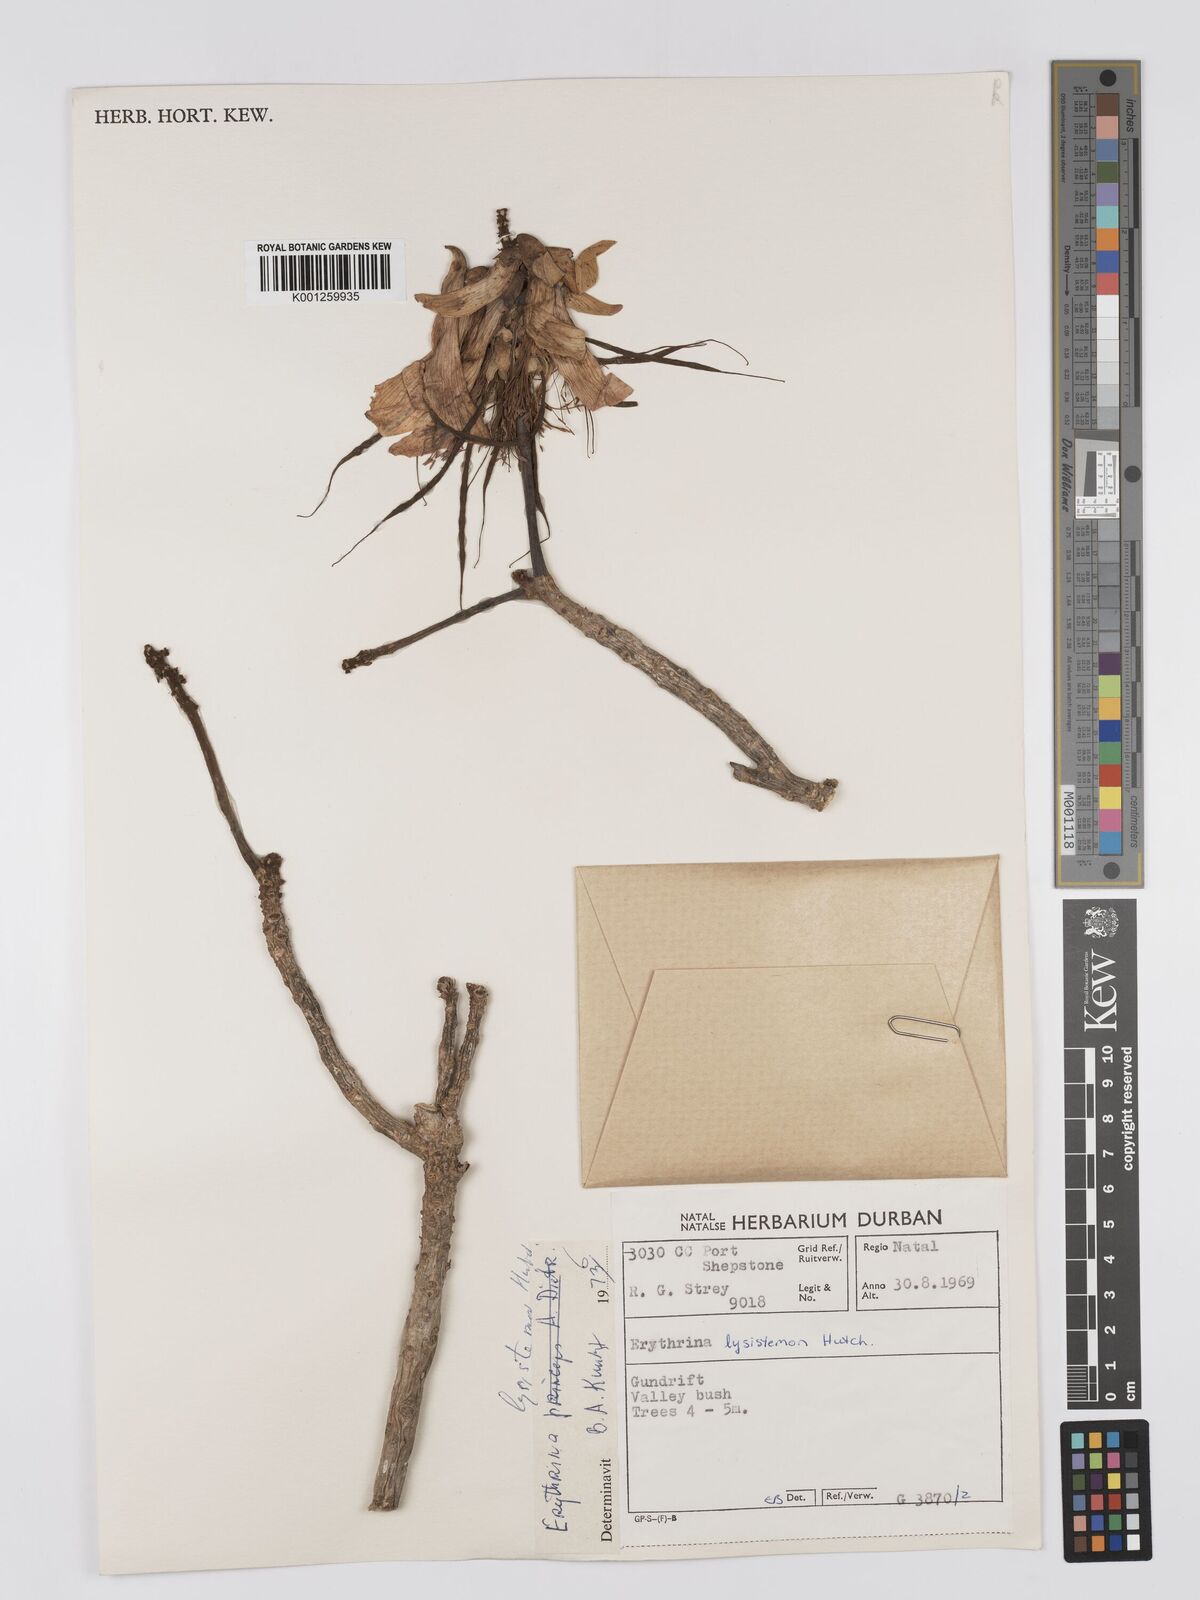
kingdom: Plantae
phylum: Tracheophyta
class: Magnoliopsida
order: Fabales
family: Fabaceae
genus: Erythrina
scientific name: Erythrina lysistemon
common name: Common coral tree
